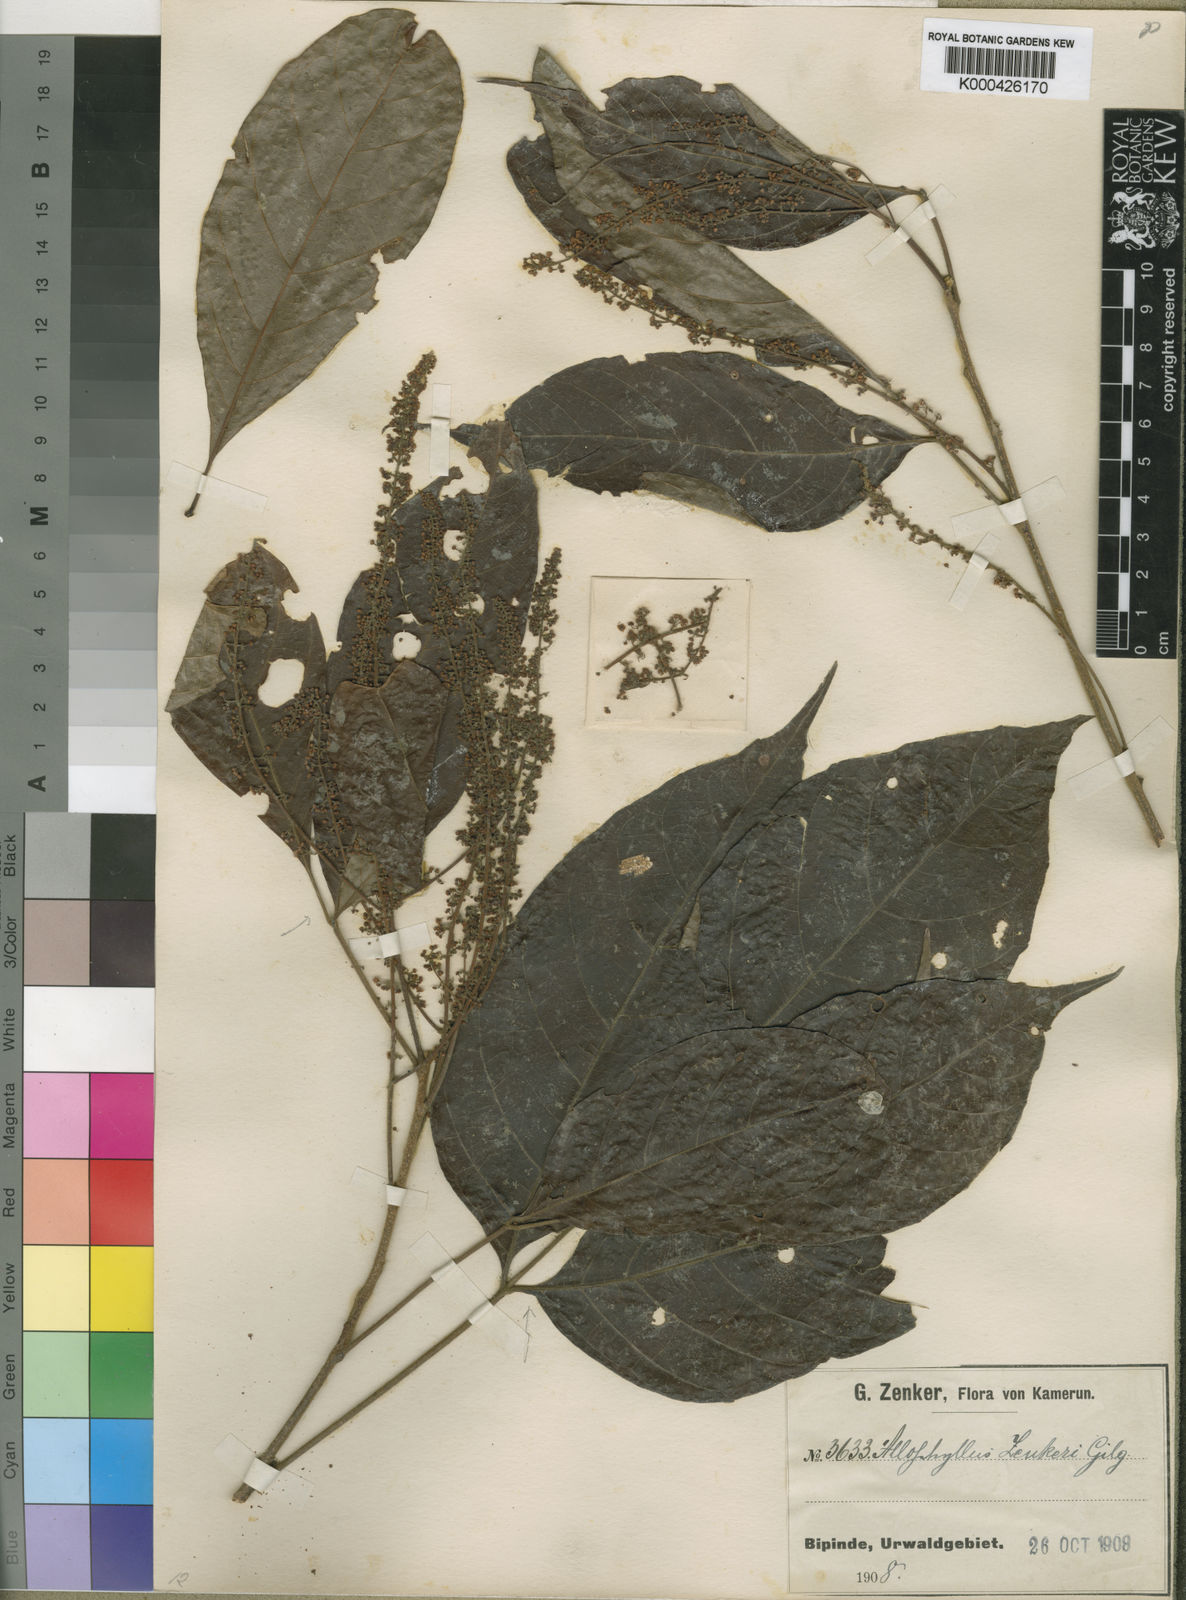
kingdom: Plantae
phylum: Tracheophyta
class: Magnoliopsida
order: Sapindales
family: Sapindaceae
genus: Allophylus
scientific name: Allophylus zenkeri
